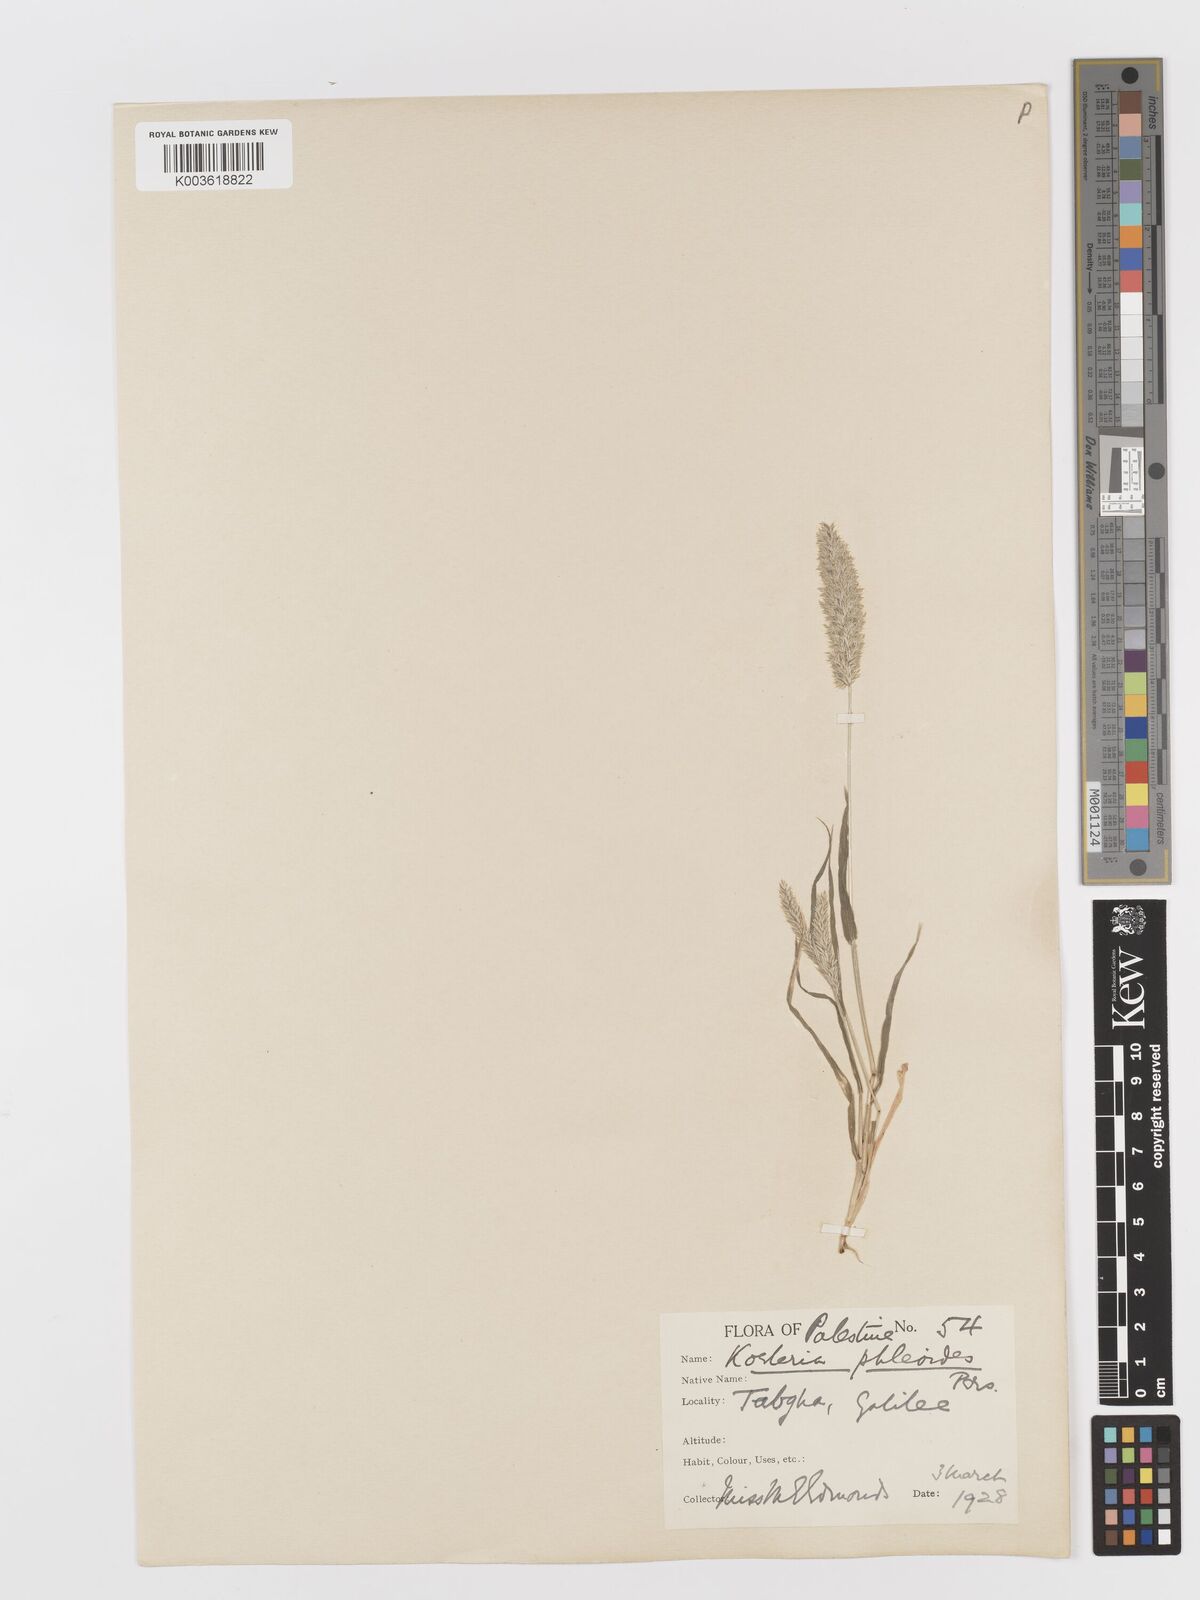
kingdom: Plantae
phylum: Tracheophyta
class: Liliopsida
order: Poales
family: Poaceae
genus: Rostraria
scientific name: Rostraria cristata
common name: Mediterranean hair-grass
